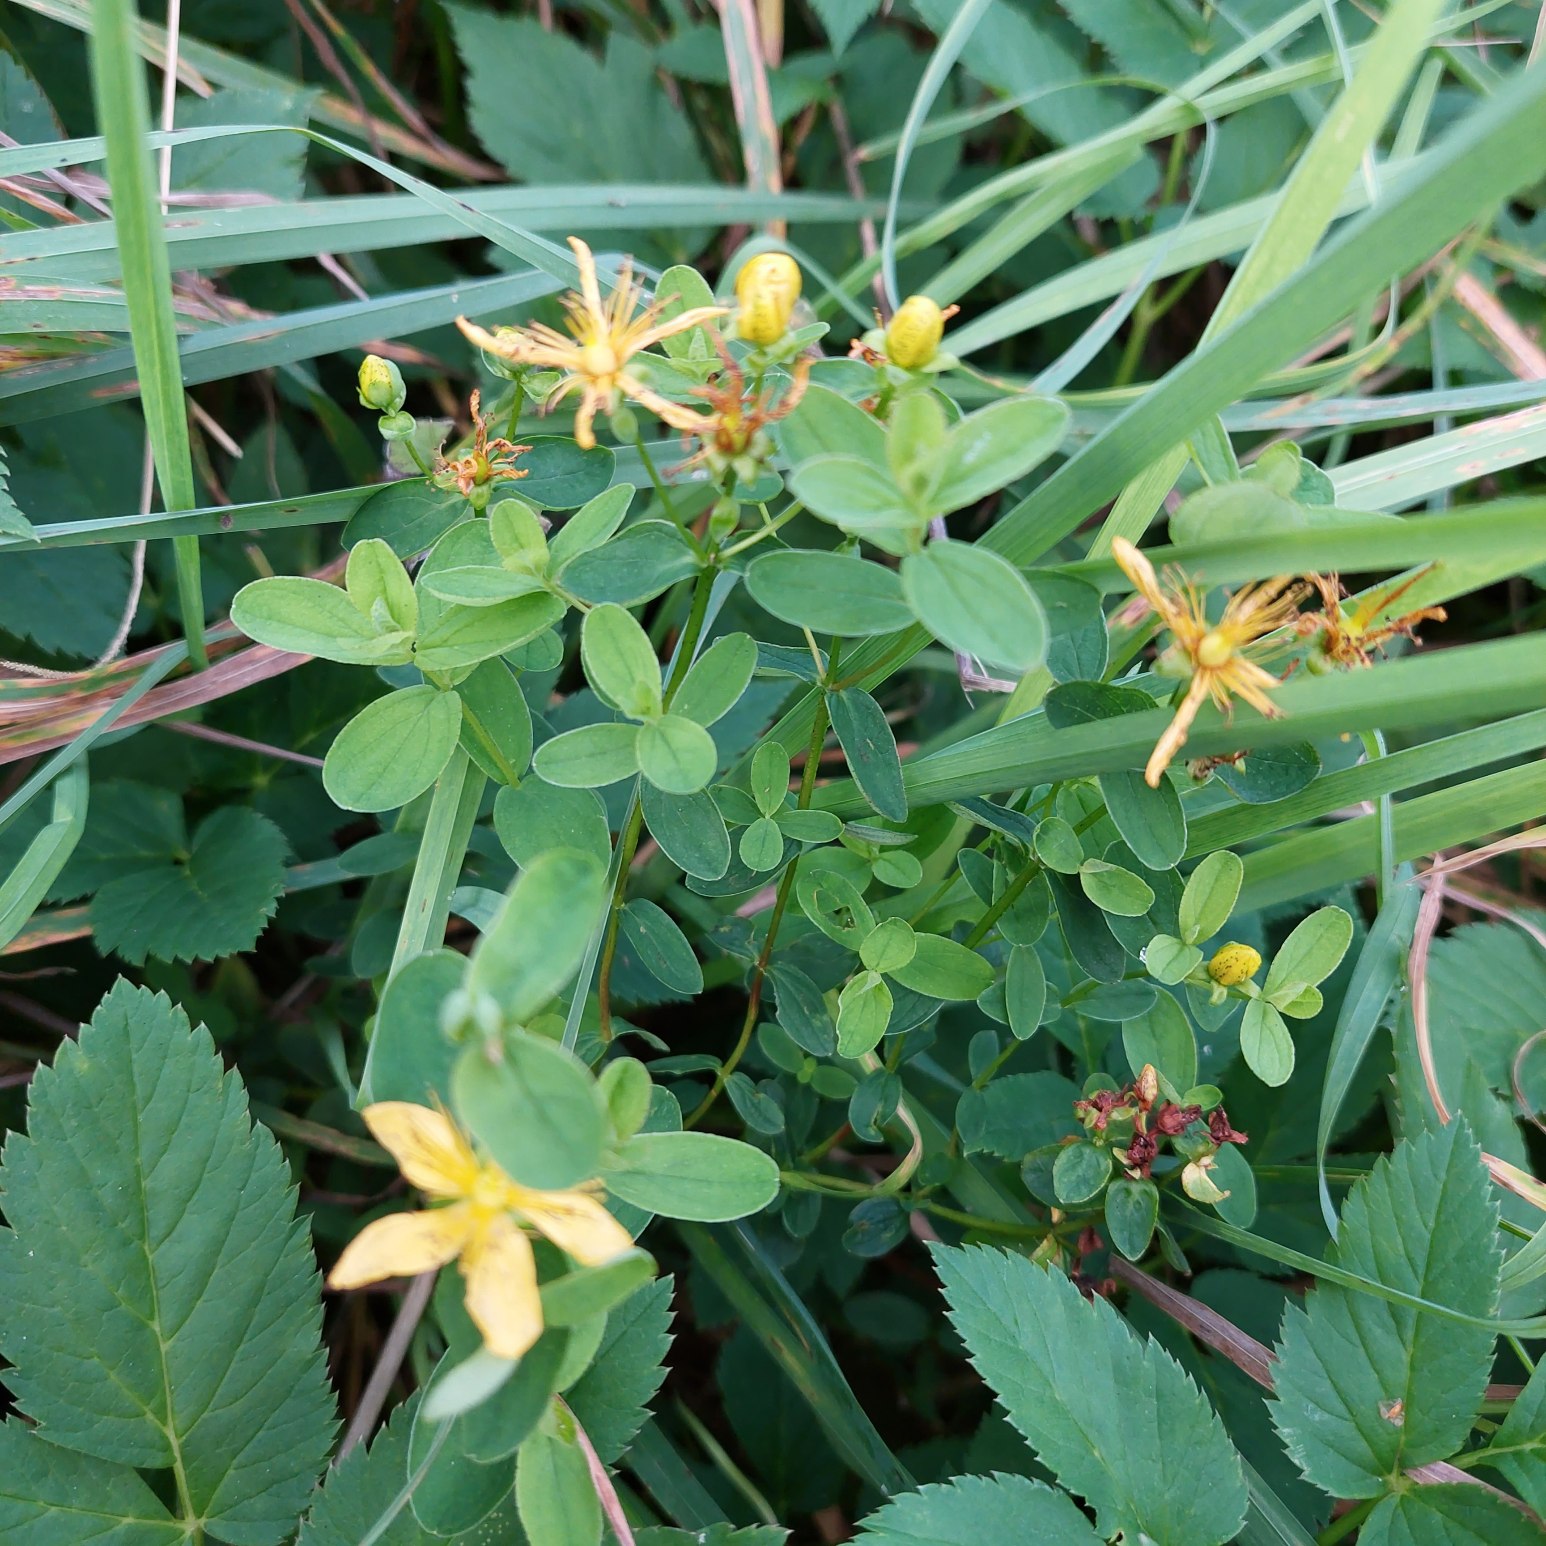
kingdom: Plantae
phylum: Tracheophyta
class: Magnoliopsida
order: Malpighiales
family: Hypericaceae
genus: Hypericum
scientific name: Hypericum maculatum
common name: Kantet perikon
